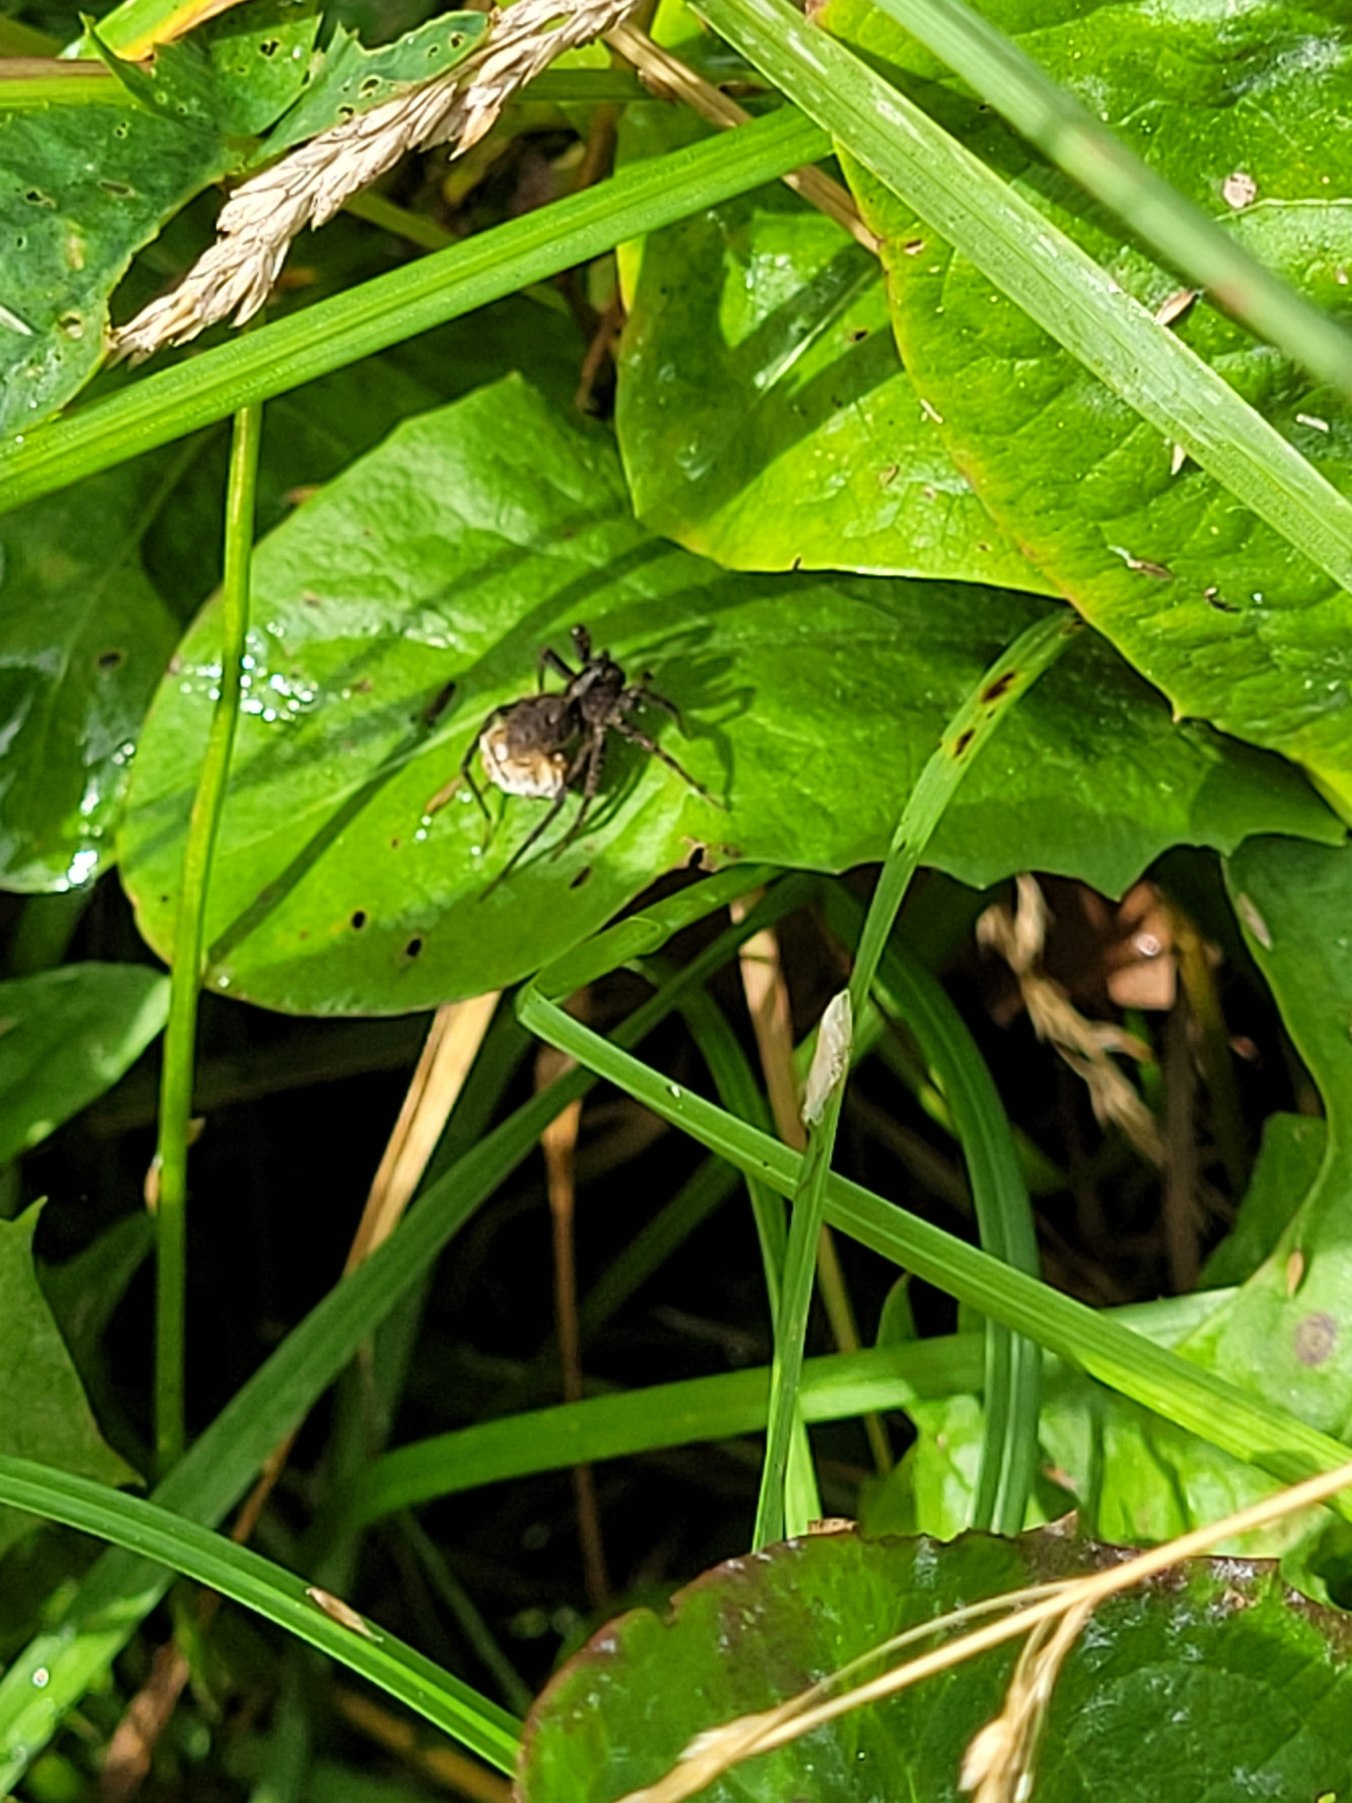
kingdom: Animalia
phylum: Arthropoda
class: Arachnida
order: Araneae
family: Lycosidae
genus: Pardosa
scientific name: Pardosa
